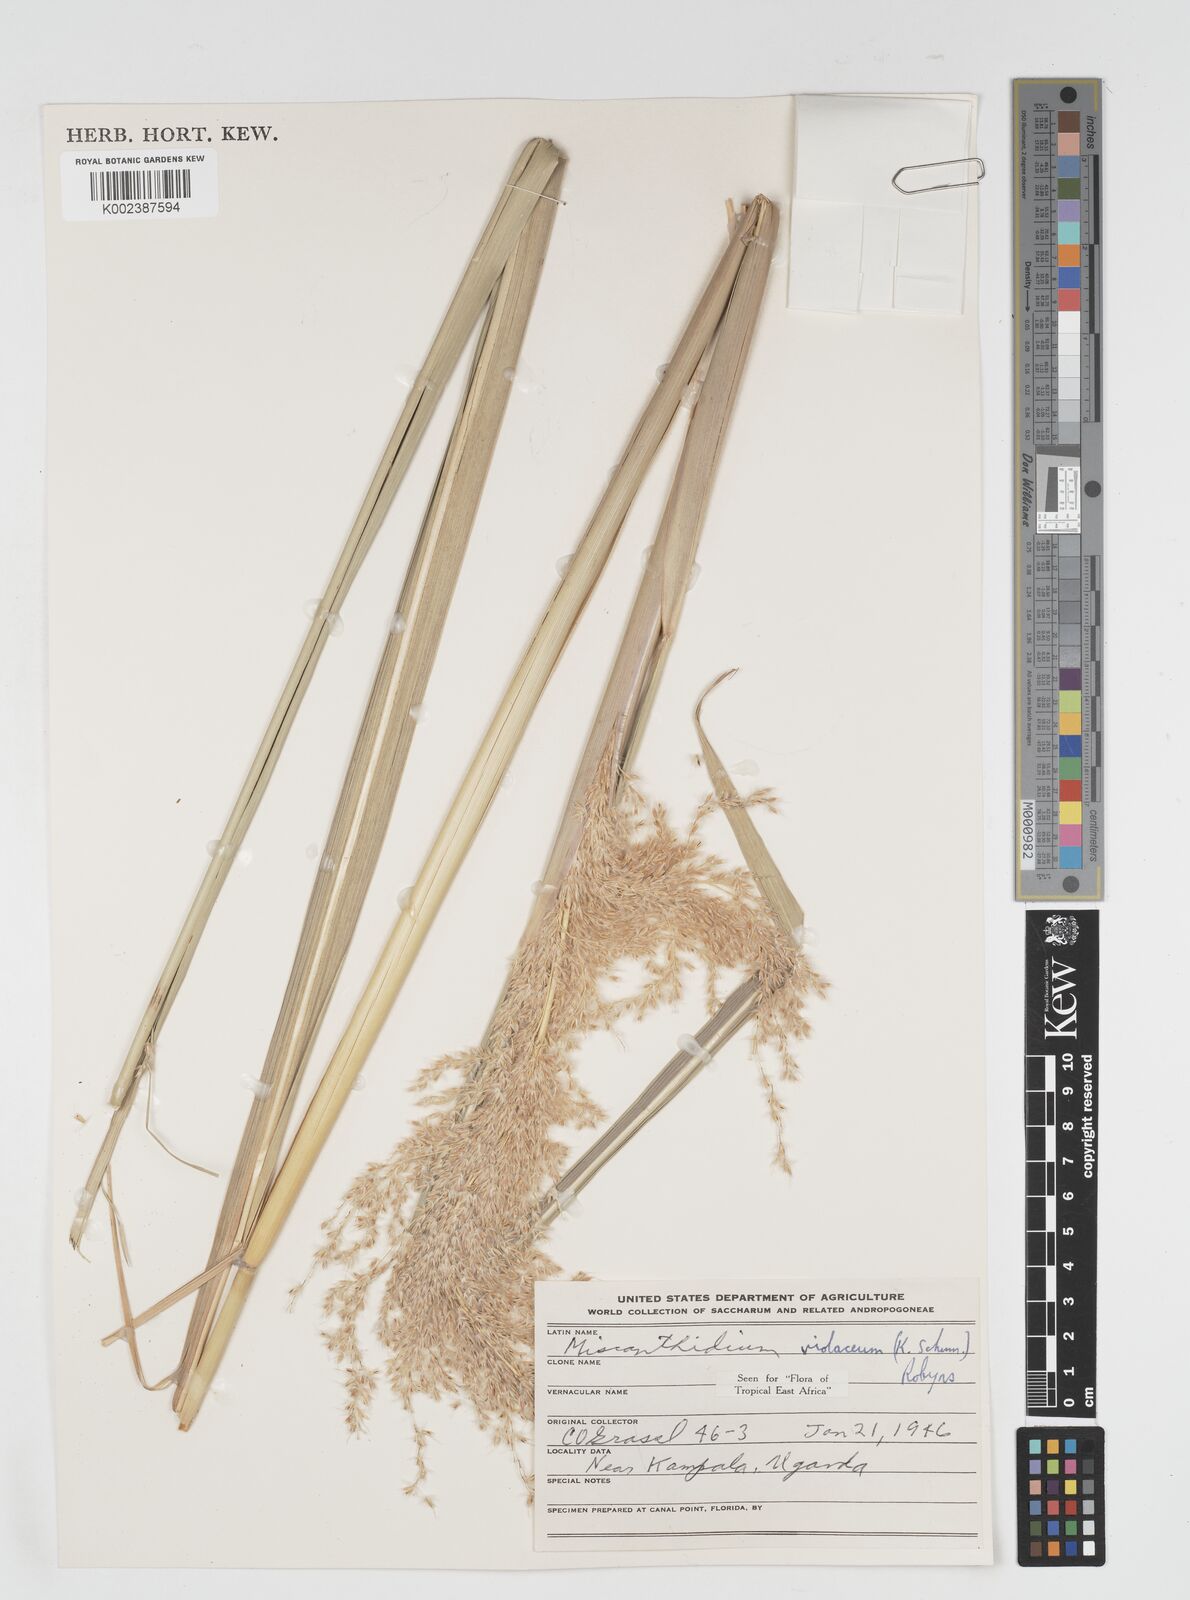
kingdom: Plantae
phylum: Tracheophyta
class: Liliopsida
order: Poales
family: Poaceae
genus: Miscanthidium
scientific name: Miscanthidium violaceum
